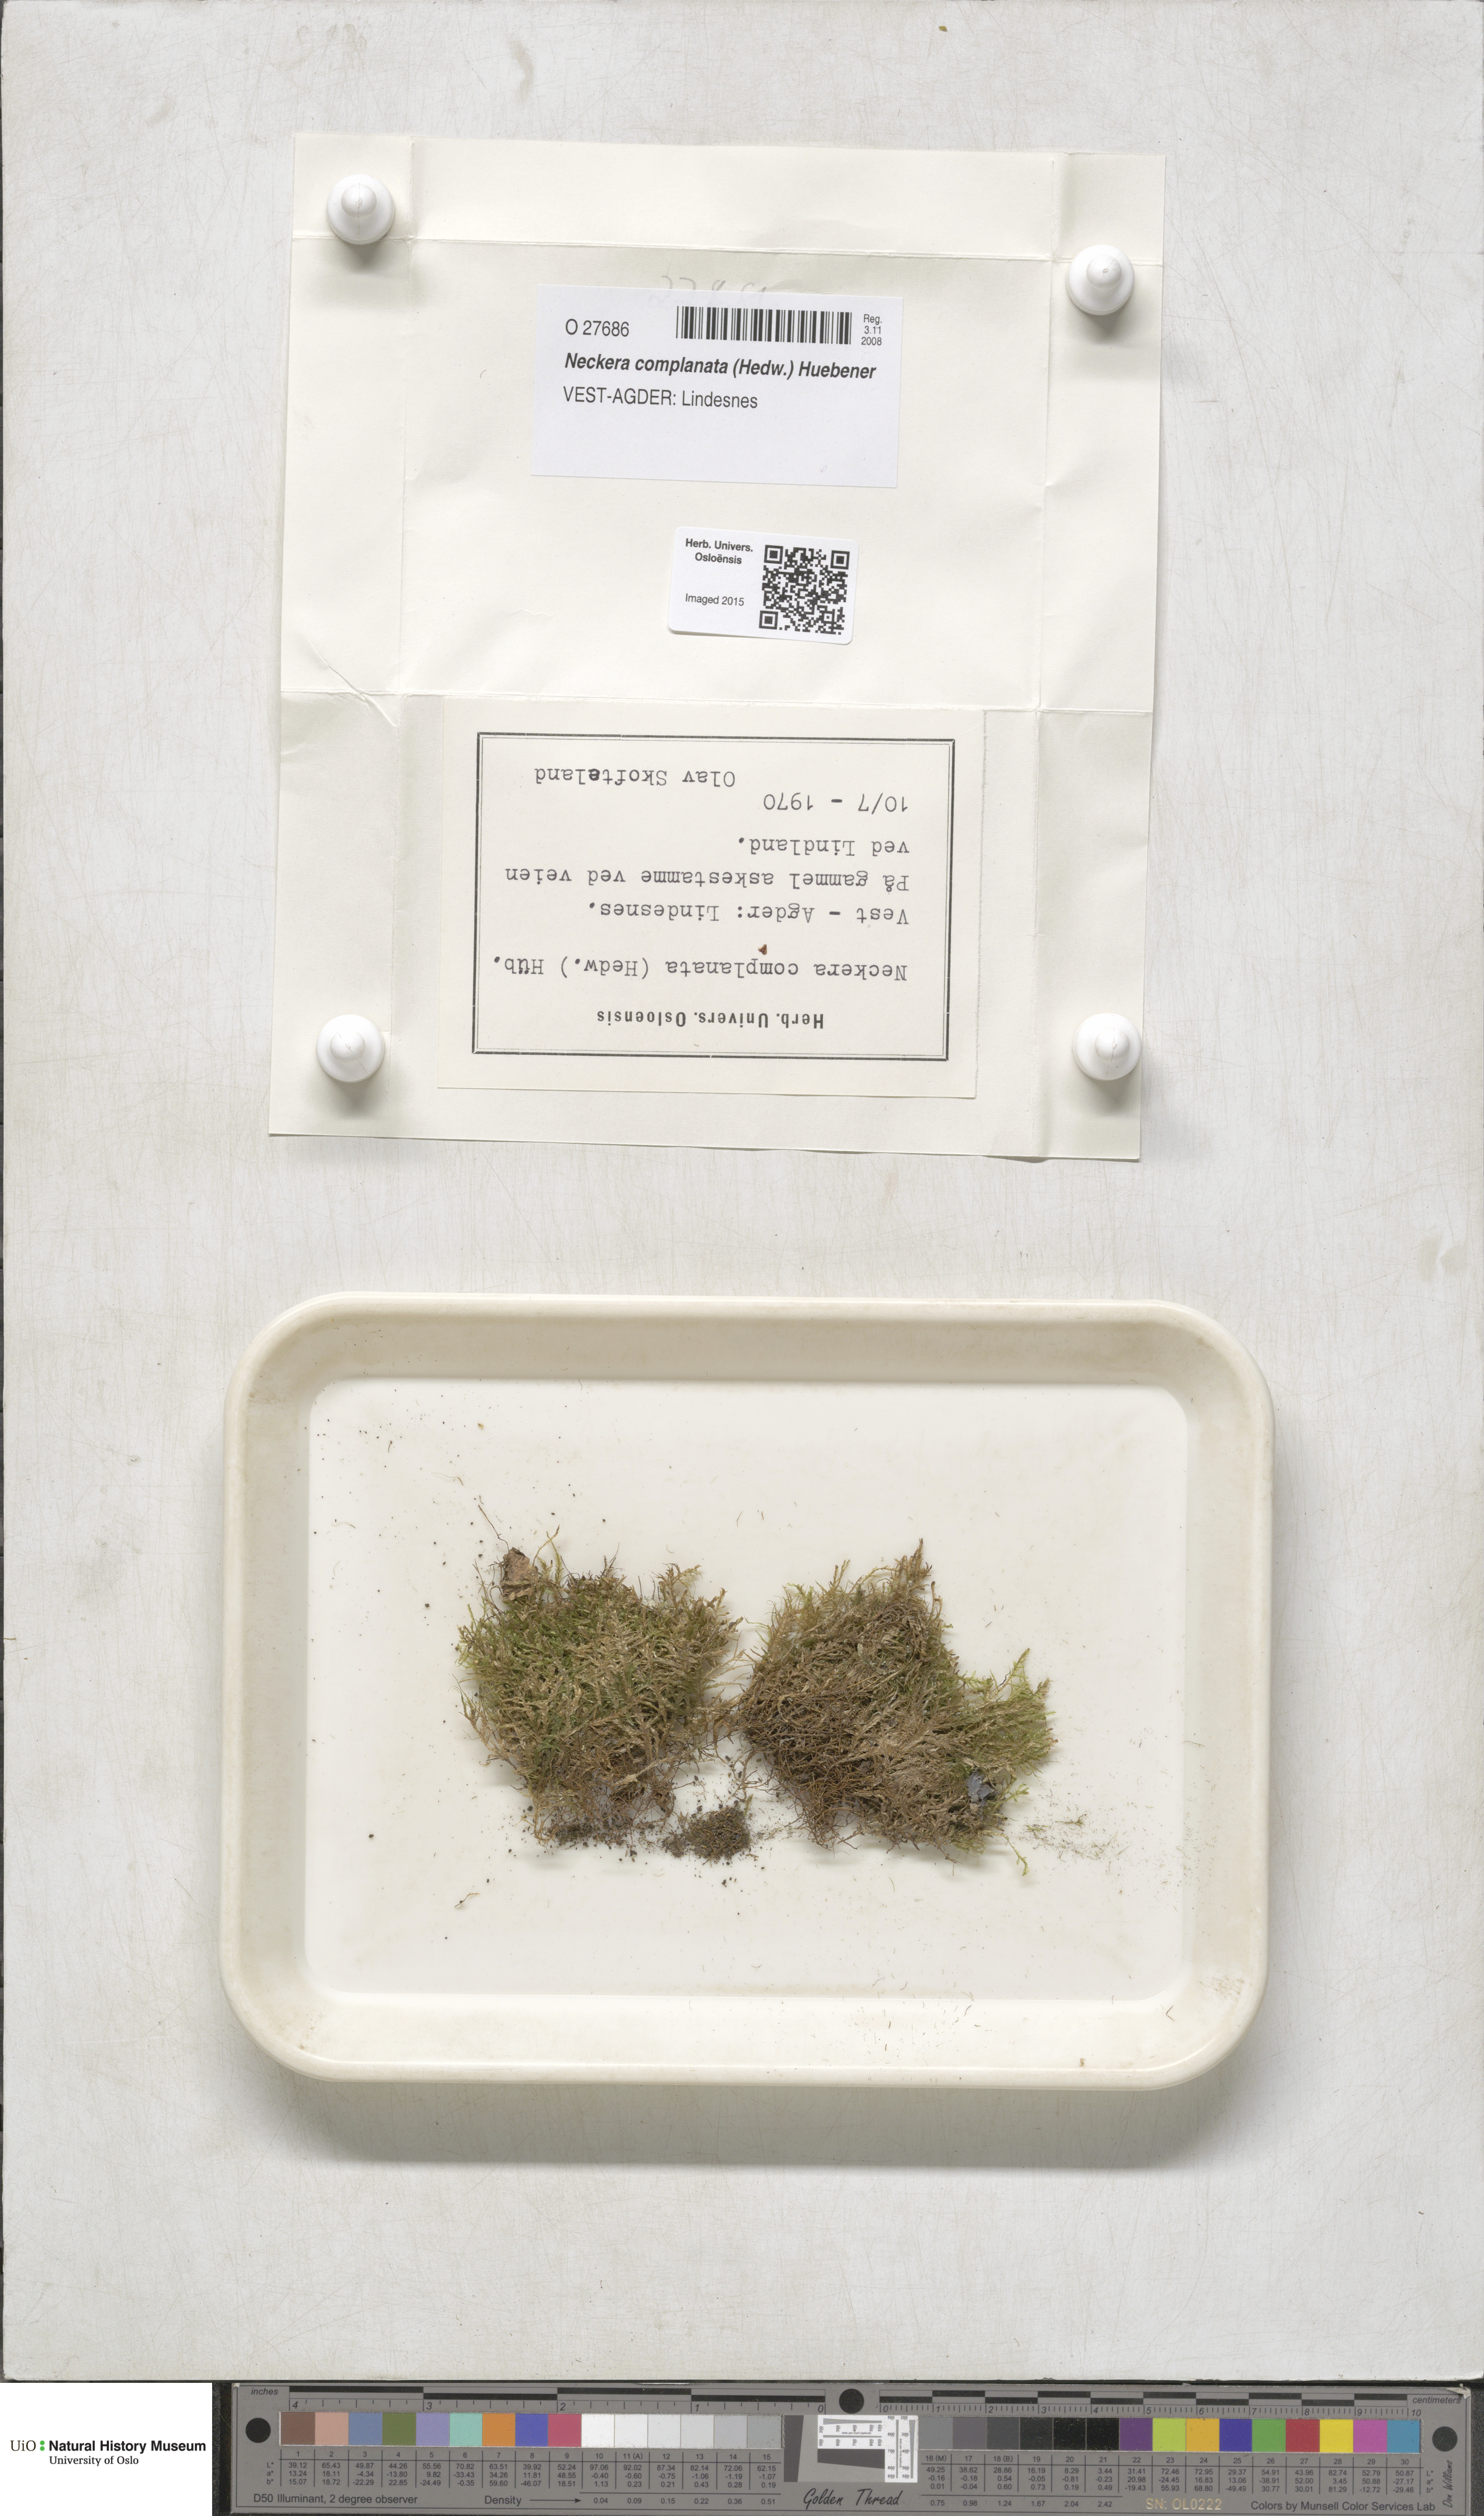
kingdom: Plantae
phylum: Bryophyta
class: Bryopsida
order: Hypnales
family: Neckeraceae
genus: Alleniella
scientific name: Alleniella complanata
